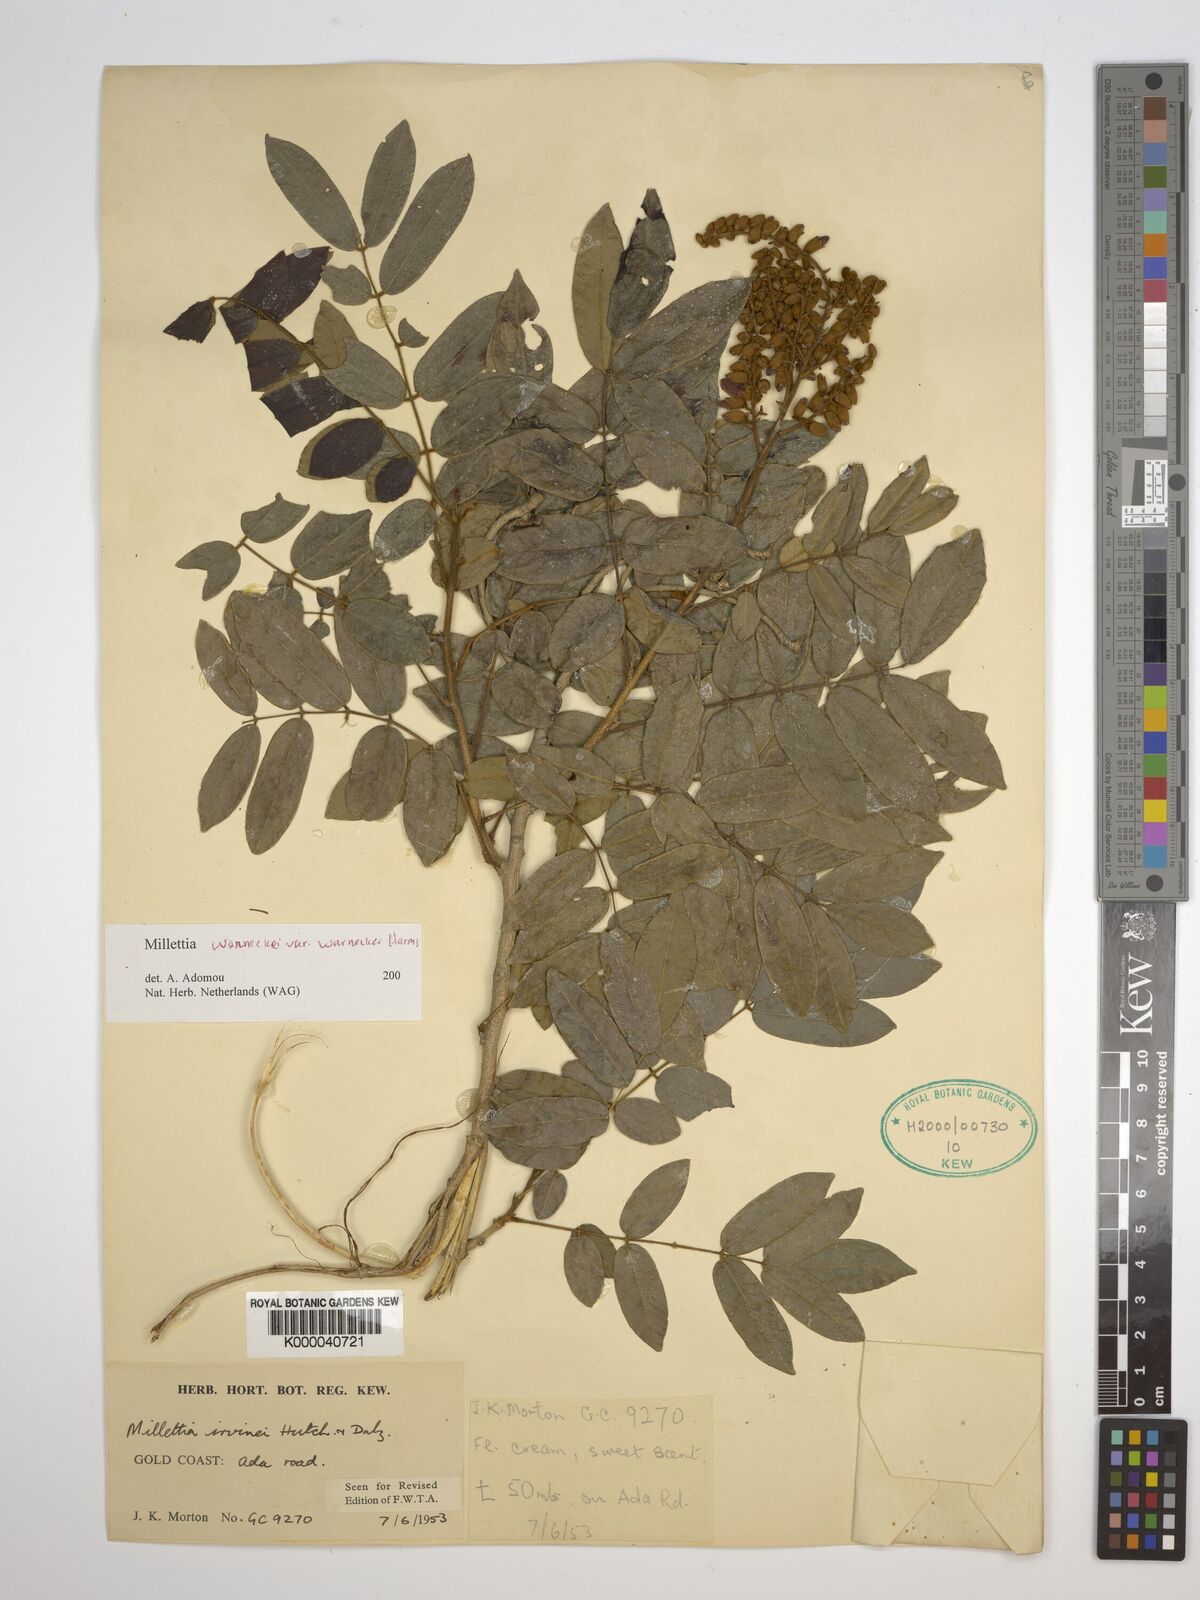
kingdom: Plantae
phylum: Tracheophyta
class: Magnoliopsida
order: Fabales
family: Fabaceae
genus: Millettia
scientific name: Millettia warneckei
